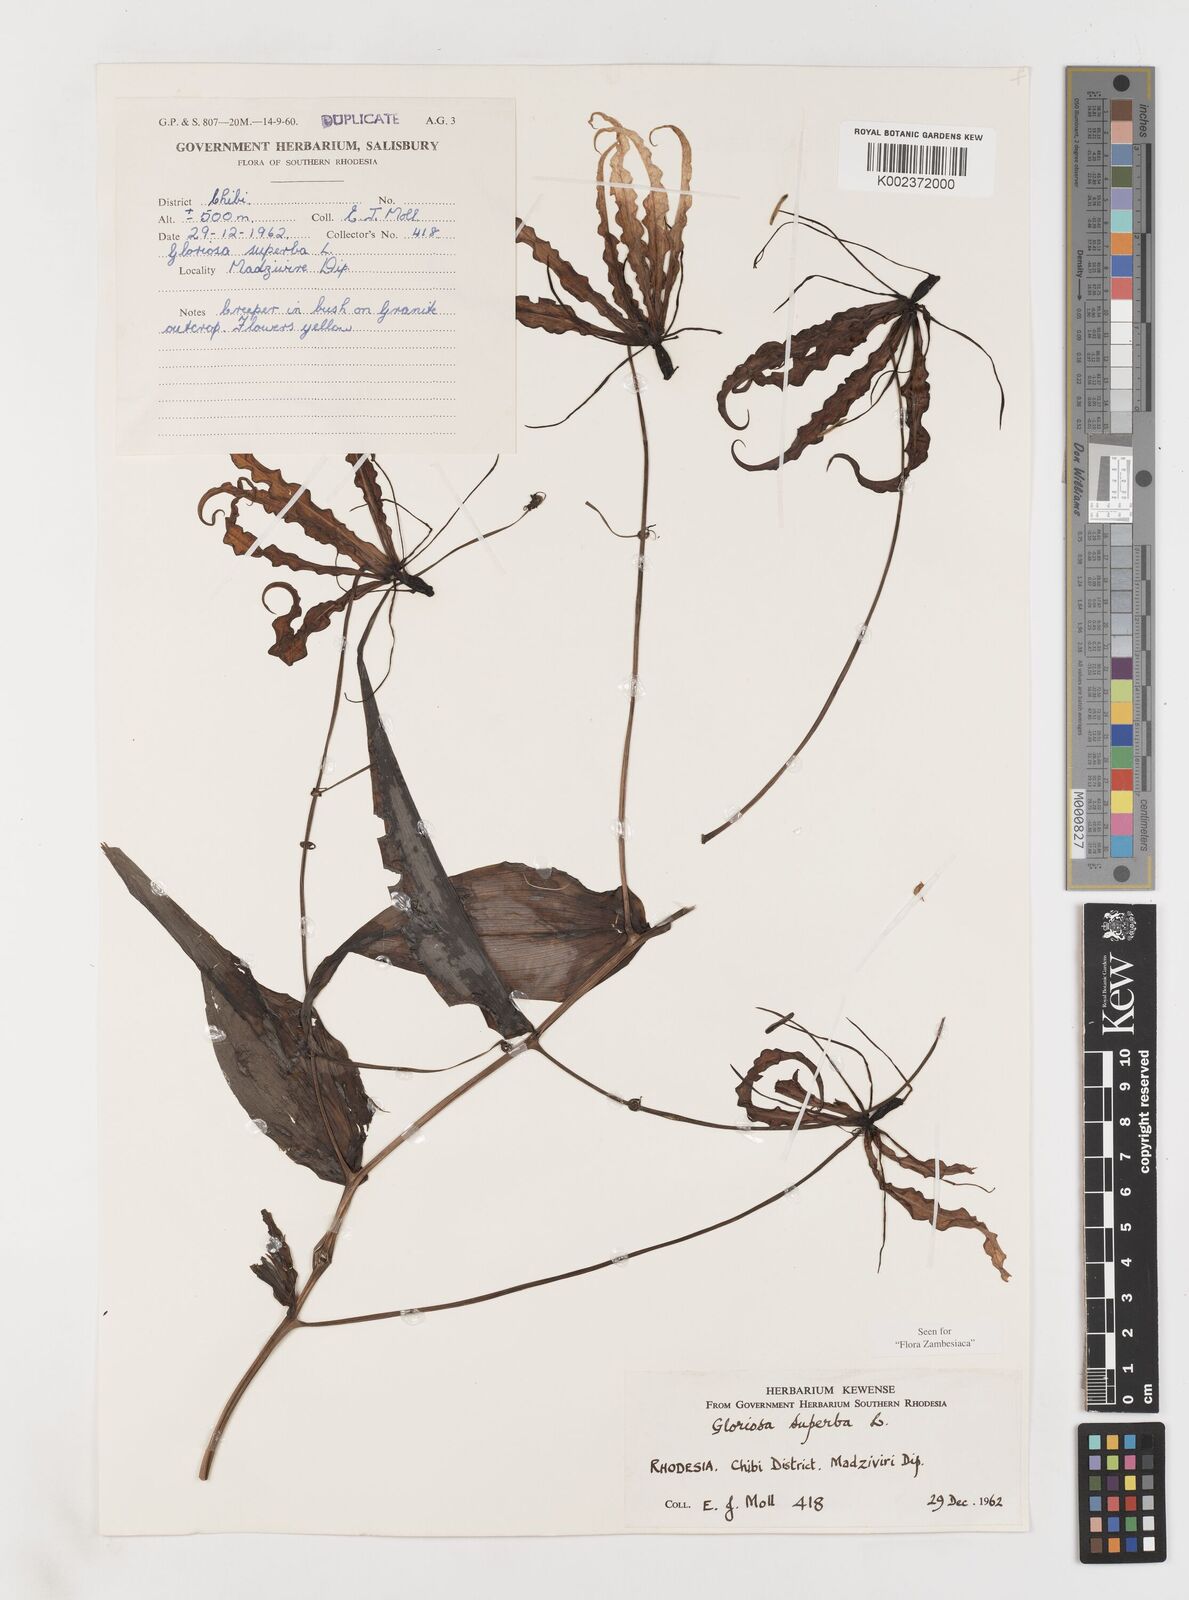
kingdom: Plantae
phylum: Tracheophyta
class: Liliopsida
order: Liliales
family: Colchicaceae
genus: Gloriosa
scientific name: Gloriosa superba
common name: Flame lily
